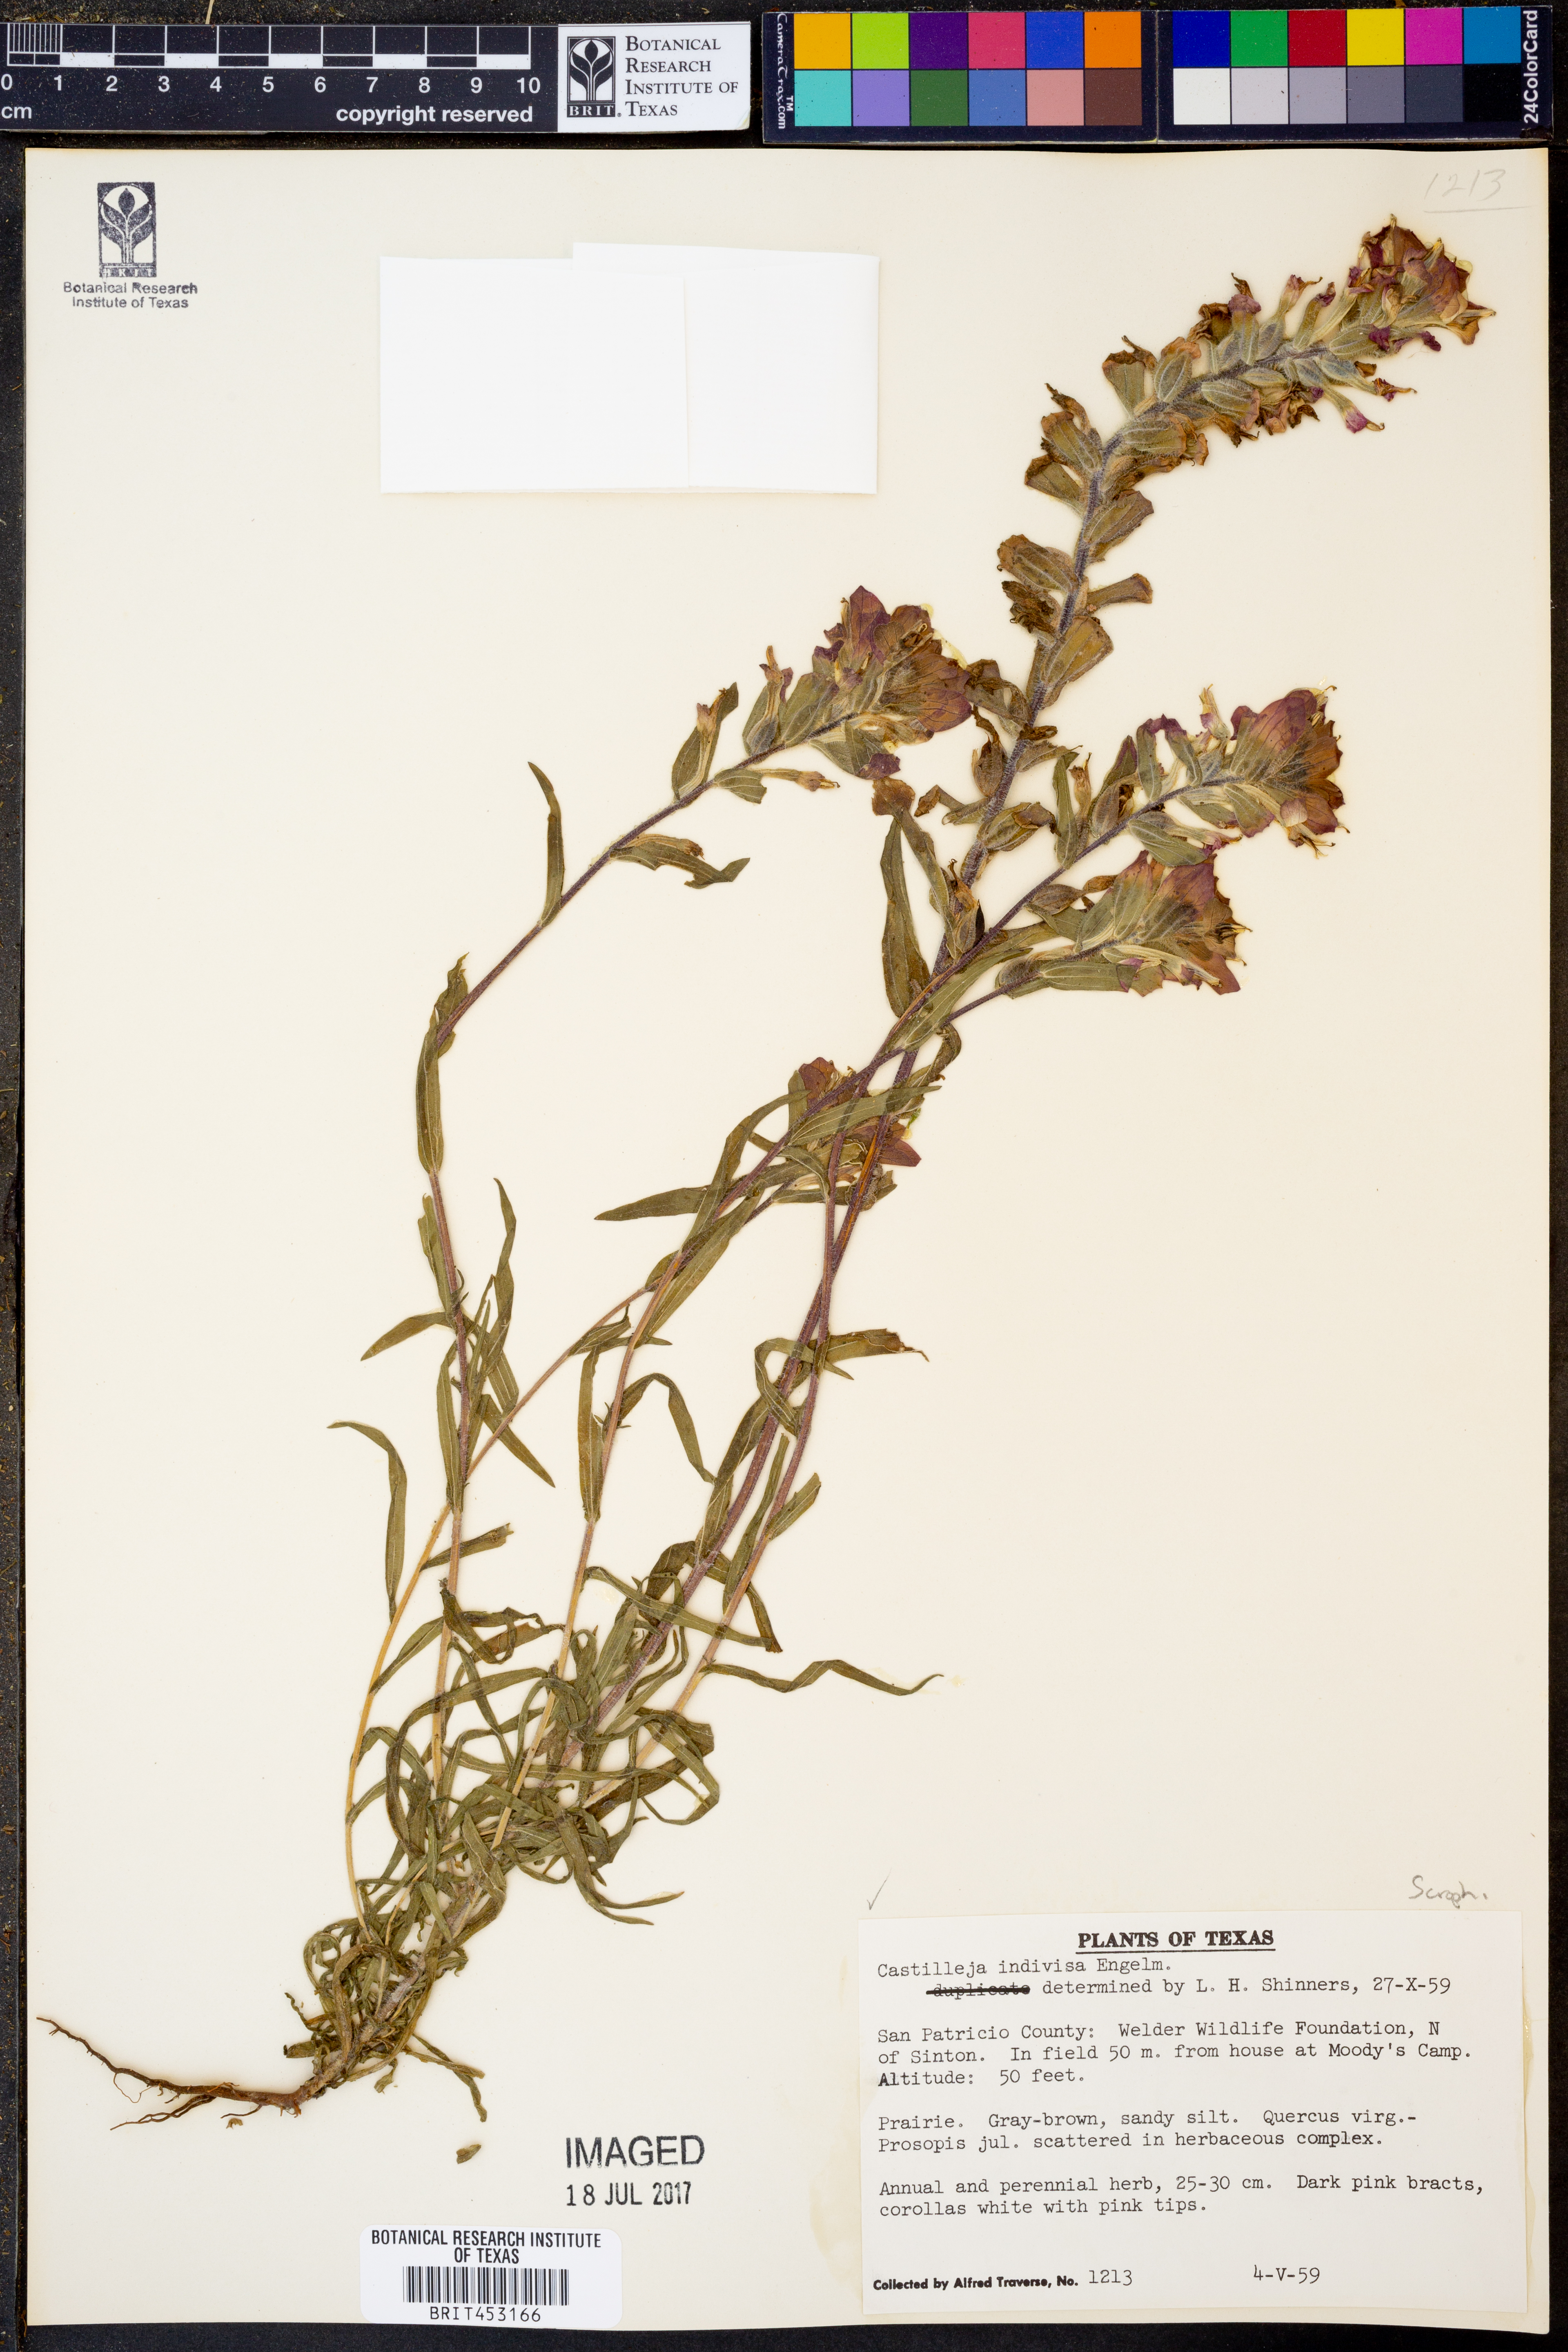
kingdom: Plantae
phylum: Tracheophyta
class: Magnoliopsida
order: Lamiales
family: Orobanchaceae
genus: Castilleja
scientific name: Castilleja indivisa
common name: Texas paintbrush
